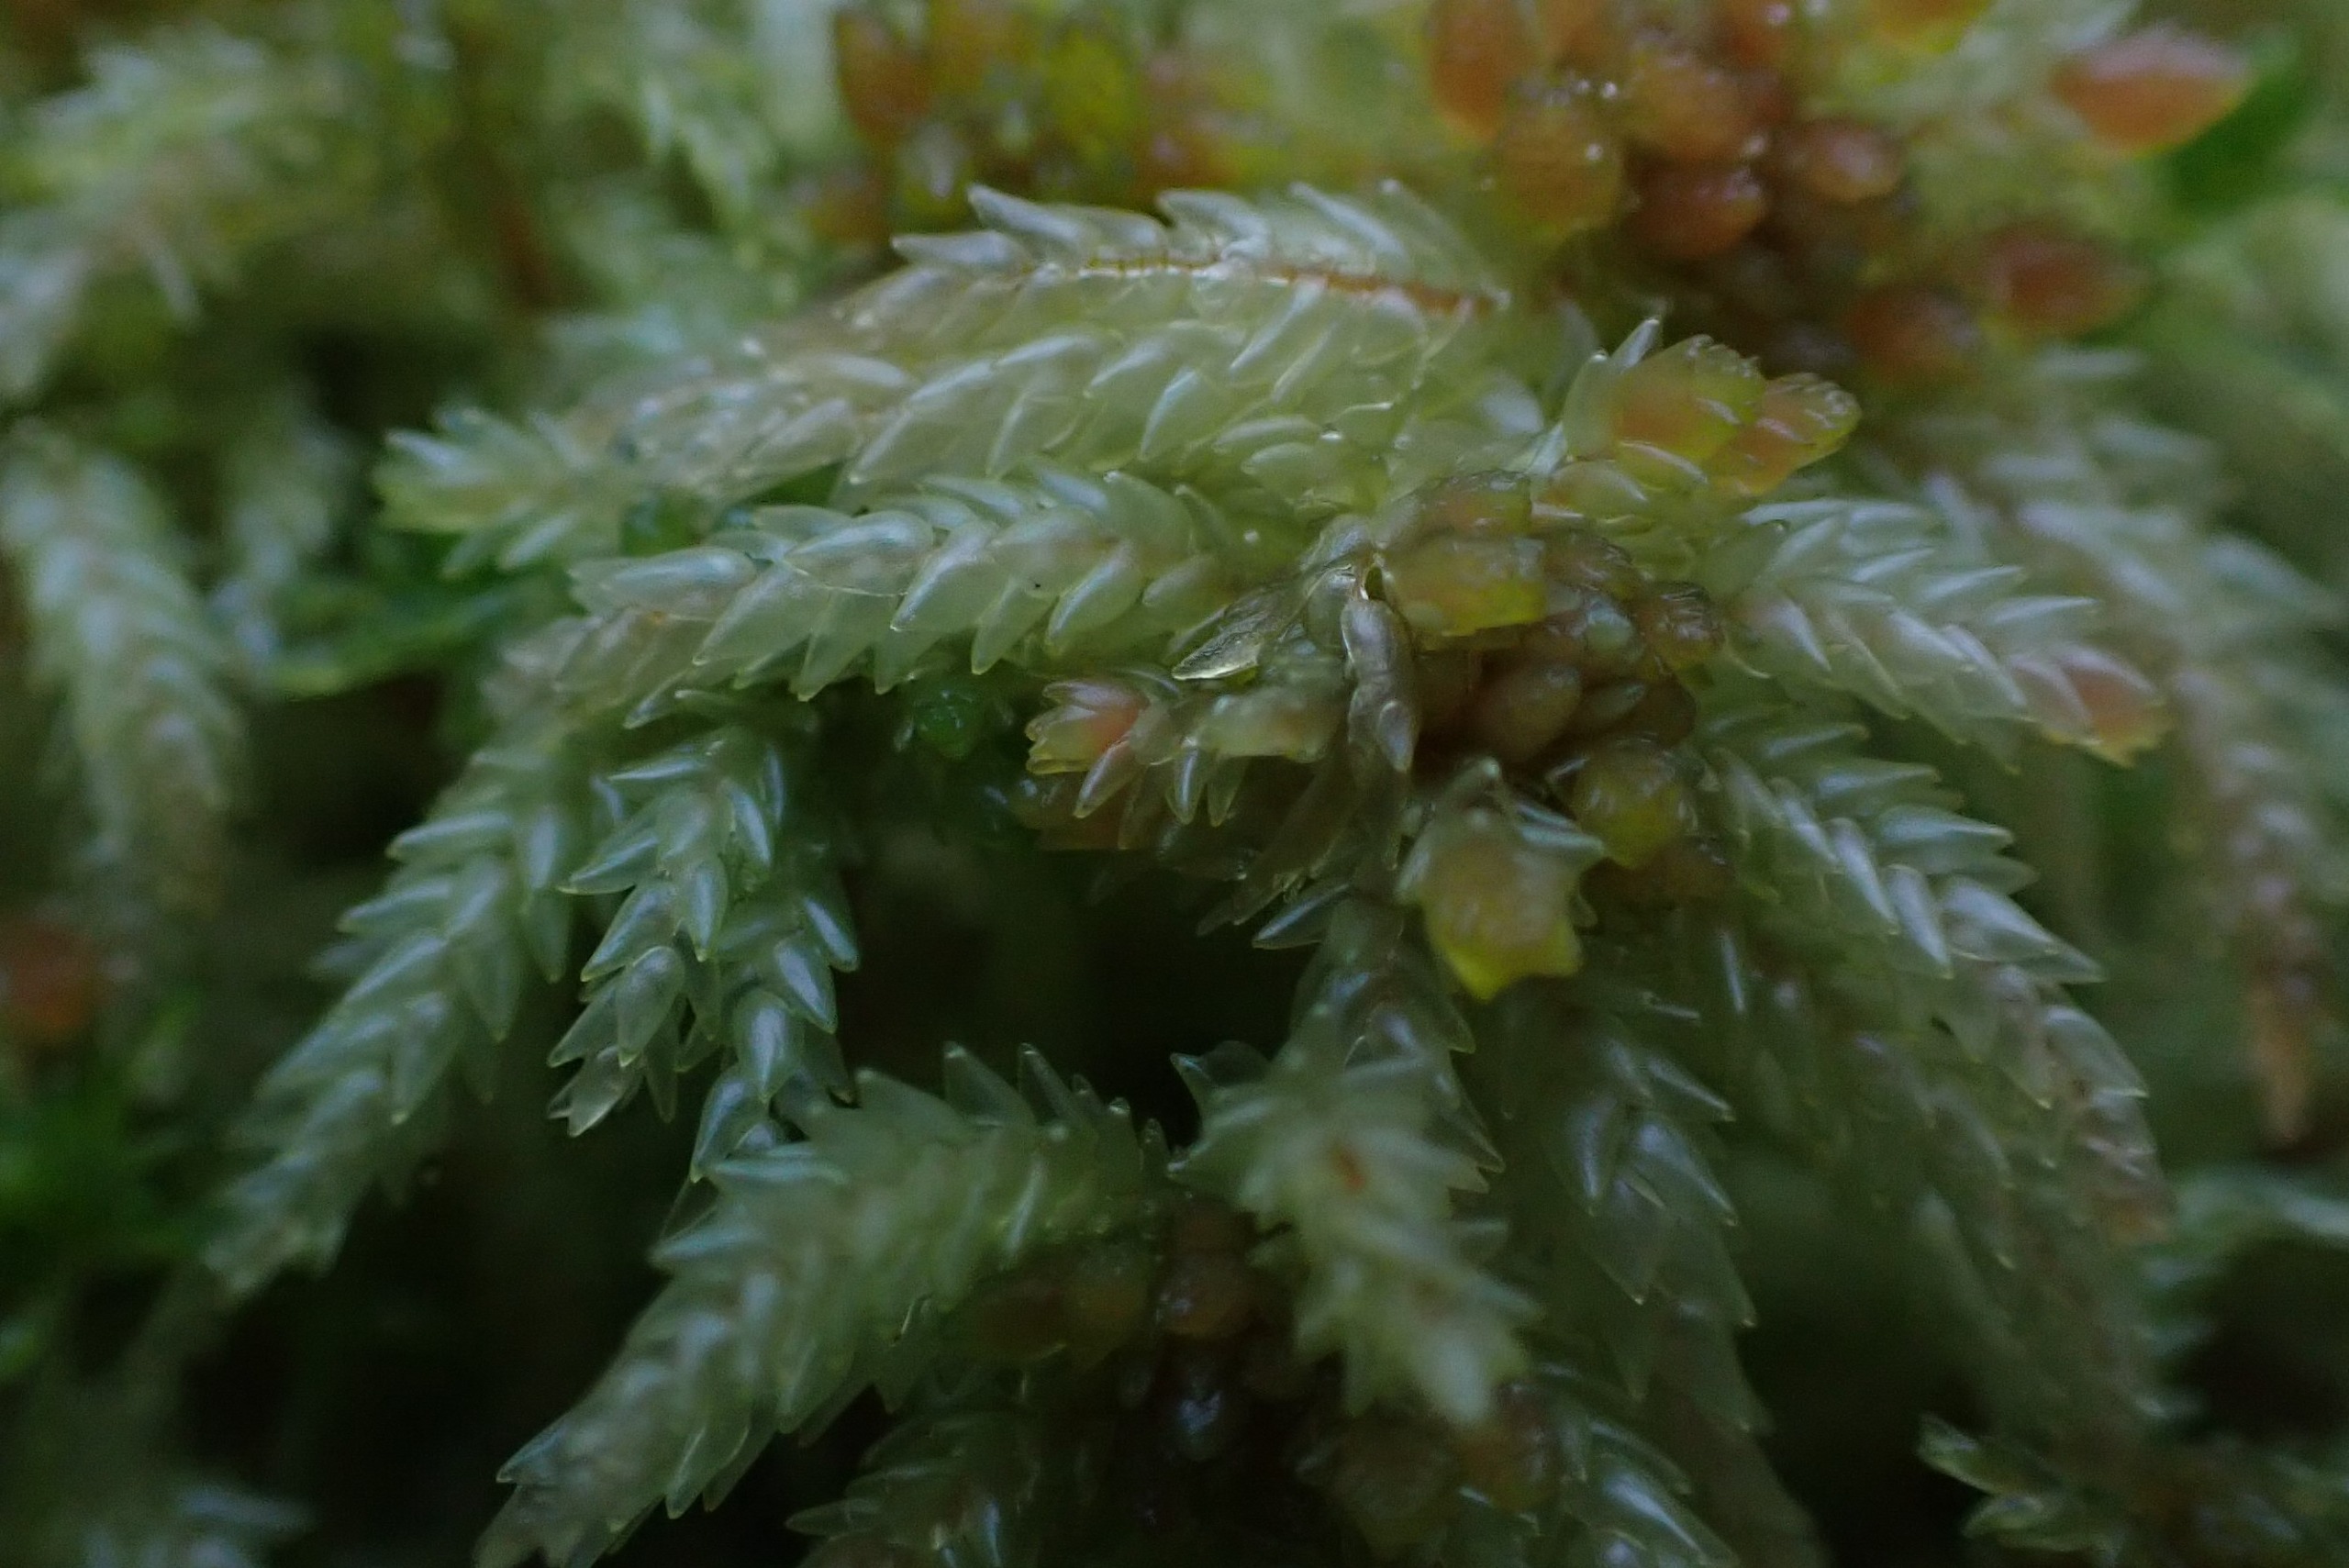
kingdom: Plantae
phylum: Bryophyta
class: Sphagnopsida
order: Sphagnales
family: Sphagnaceae
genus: Sphagnum
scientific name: Sphagnum palustre
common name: Almindelig tørvemos
